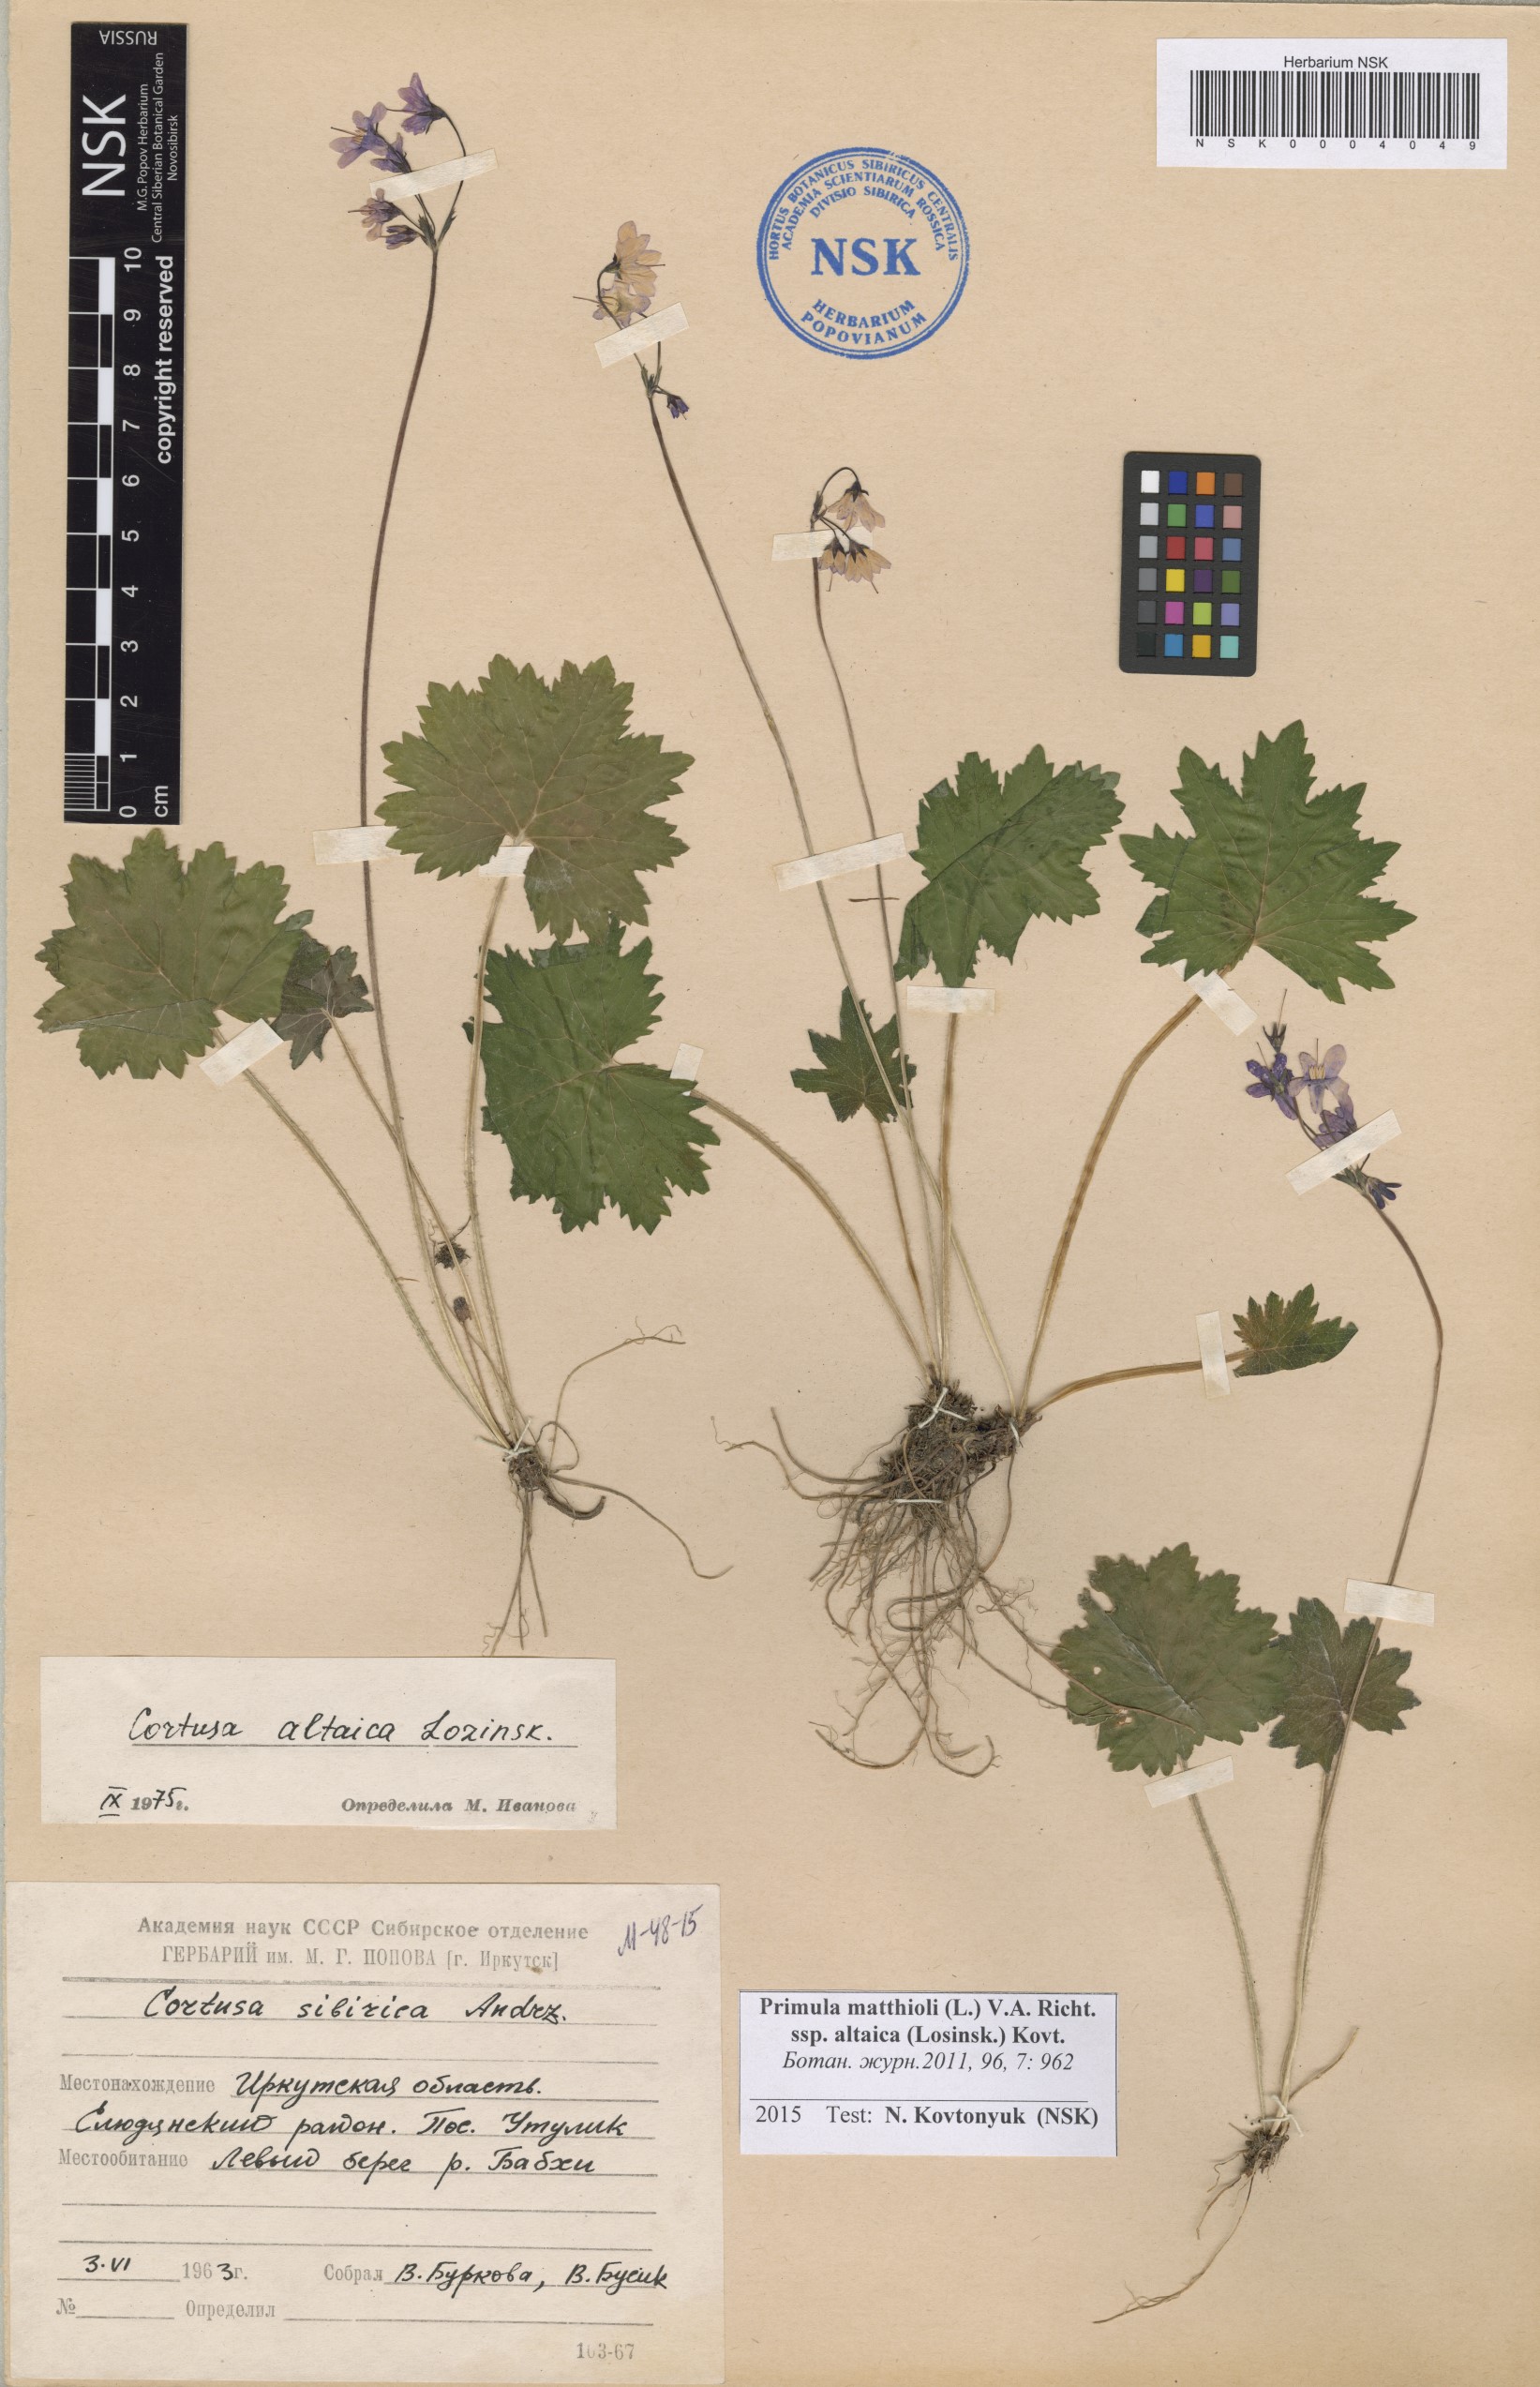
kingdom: Plantae
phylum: Tracheophyta
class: Magnoliopsida
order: Ericales
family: Primulaceae
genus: Primula
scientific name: Primula matthioli
